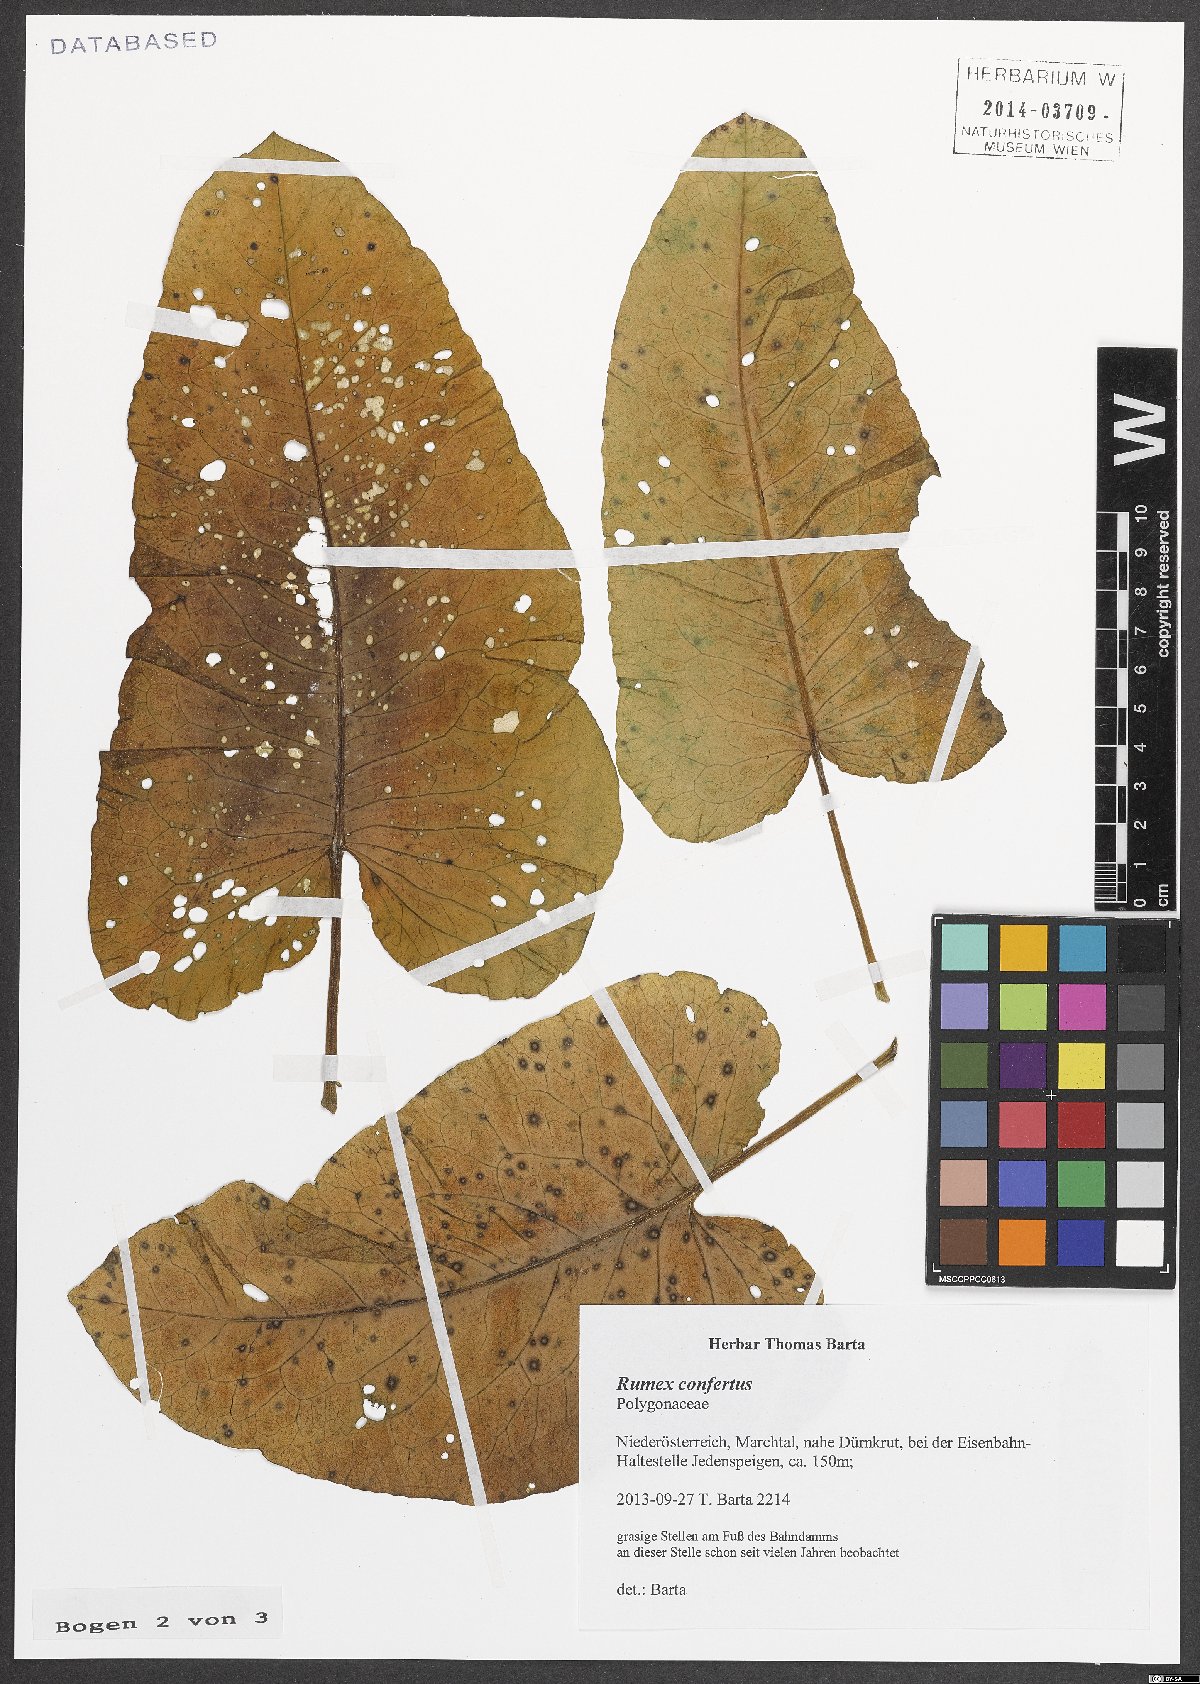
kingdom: Plantae
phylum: Tracheophyta
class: Magnoliopsida
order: Caryophyllales
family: Polygonaceae
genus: Rumex
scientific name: Rumex confertus
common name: Russian dock
